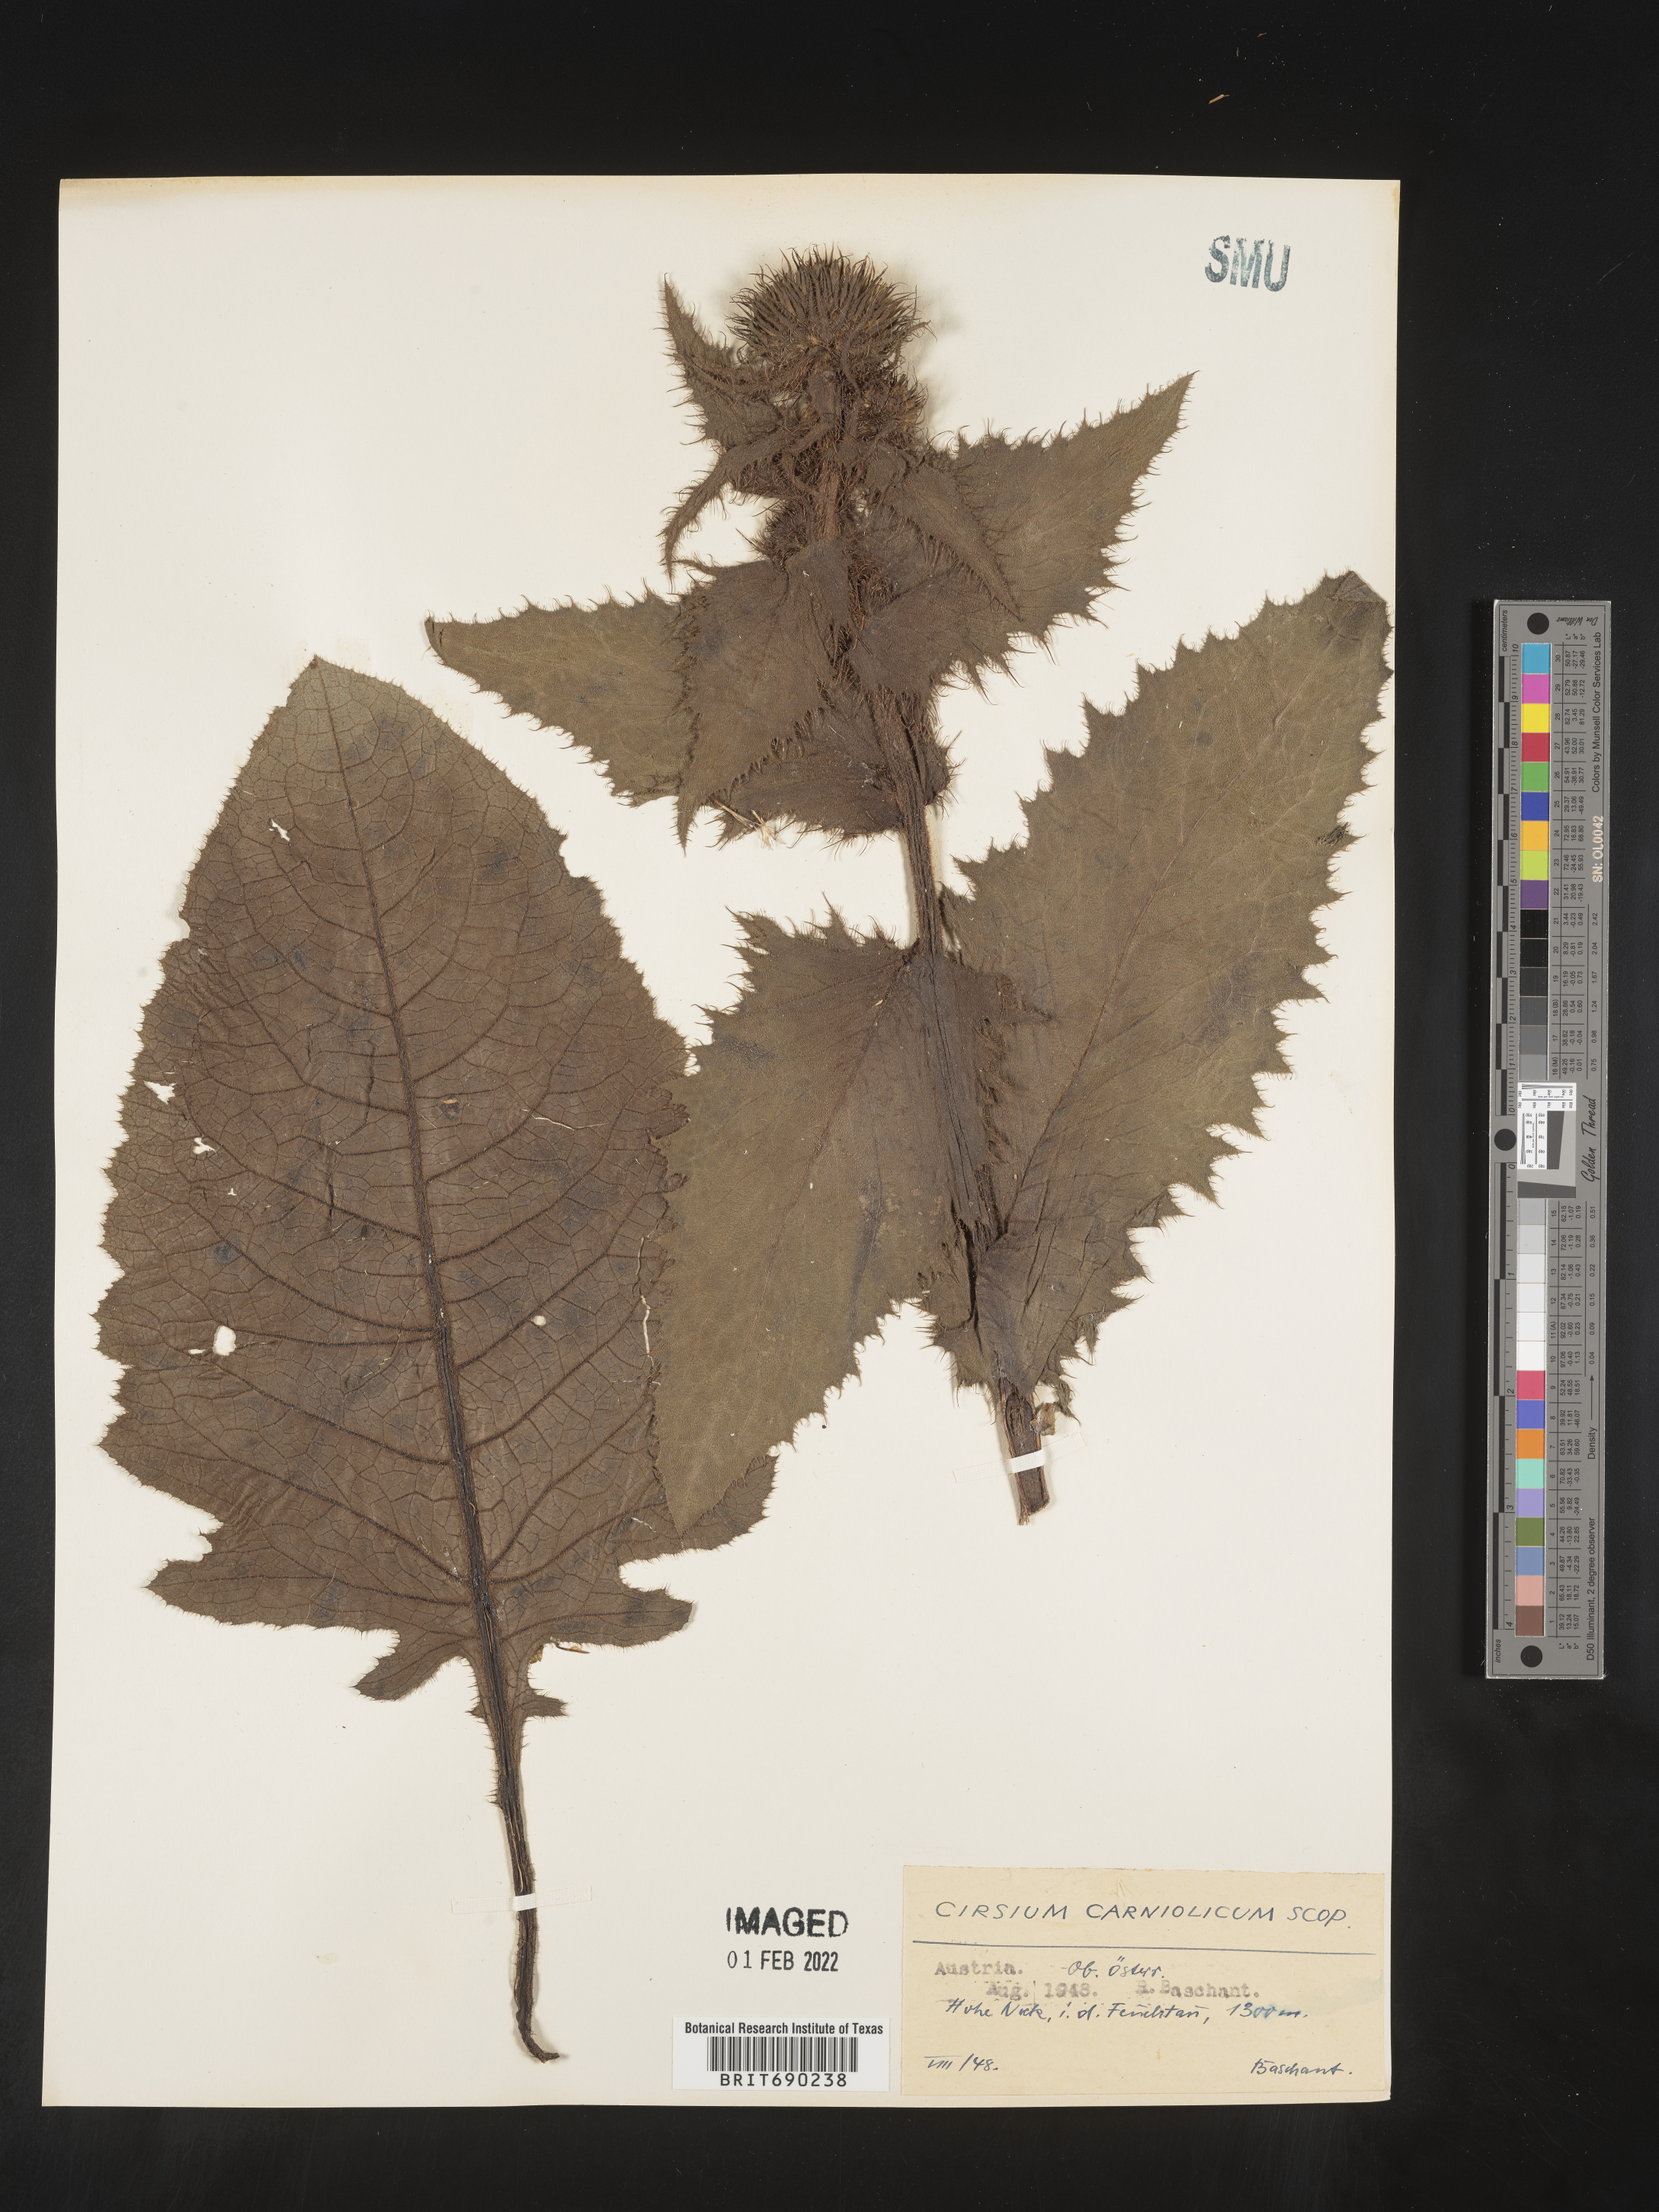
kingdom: Plantae
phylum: Tracheophyta
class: Magnoliopsida
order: Asterales
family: Asteraceae
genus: Cirsium
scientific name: Cirsium
